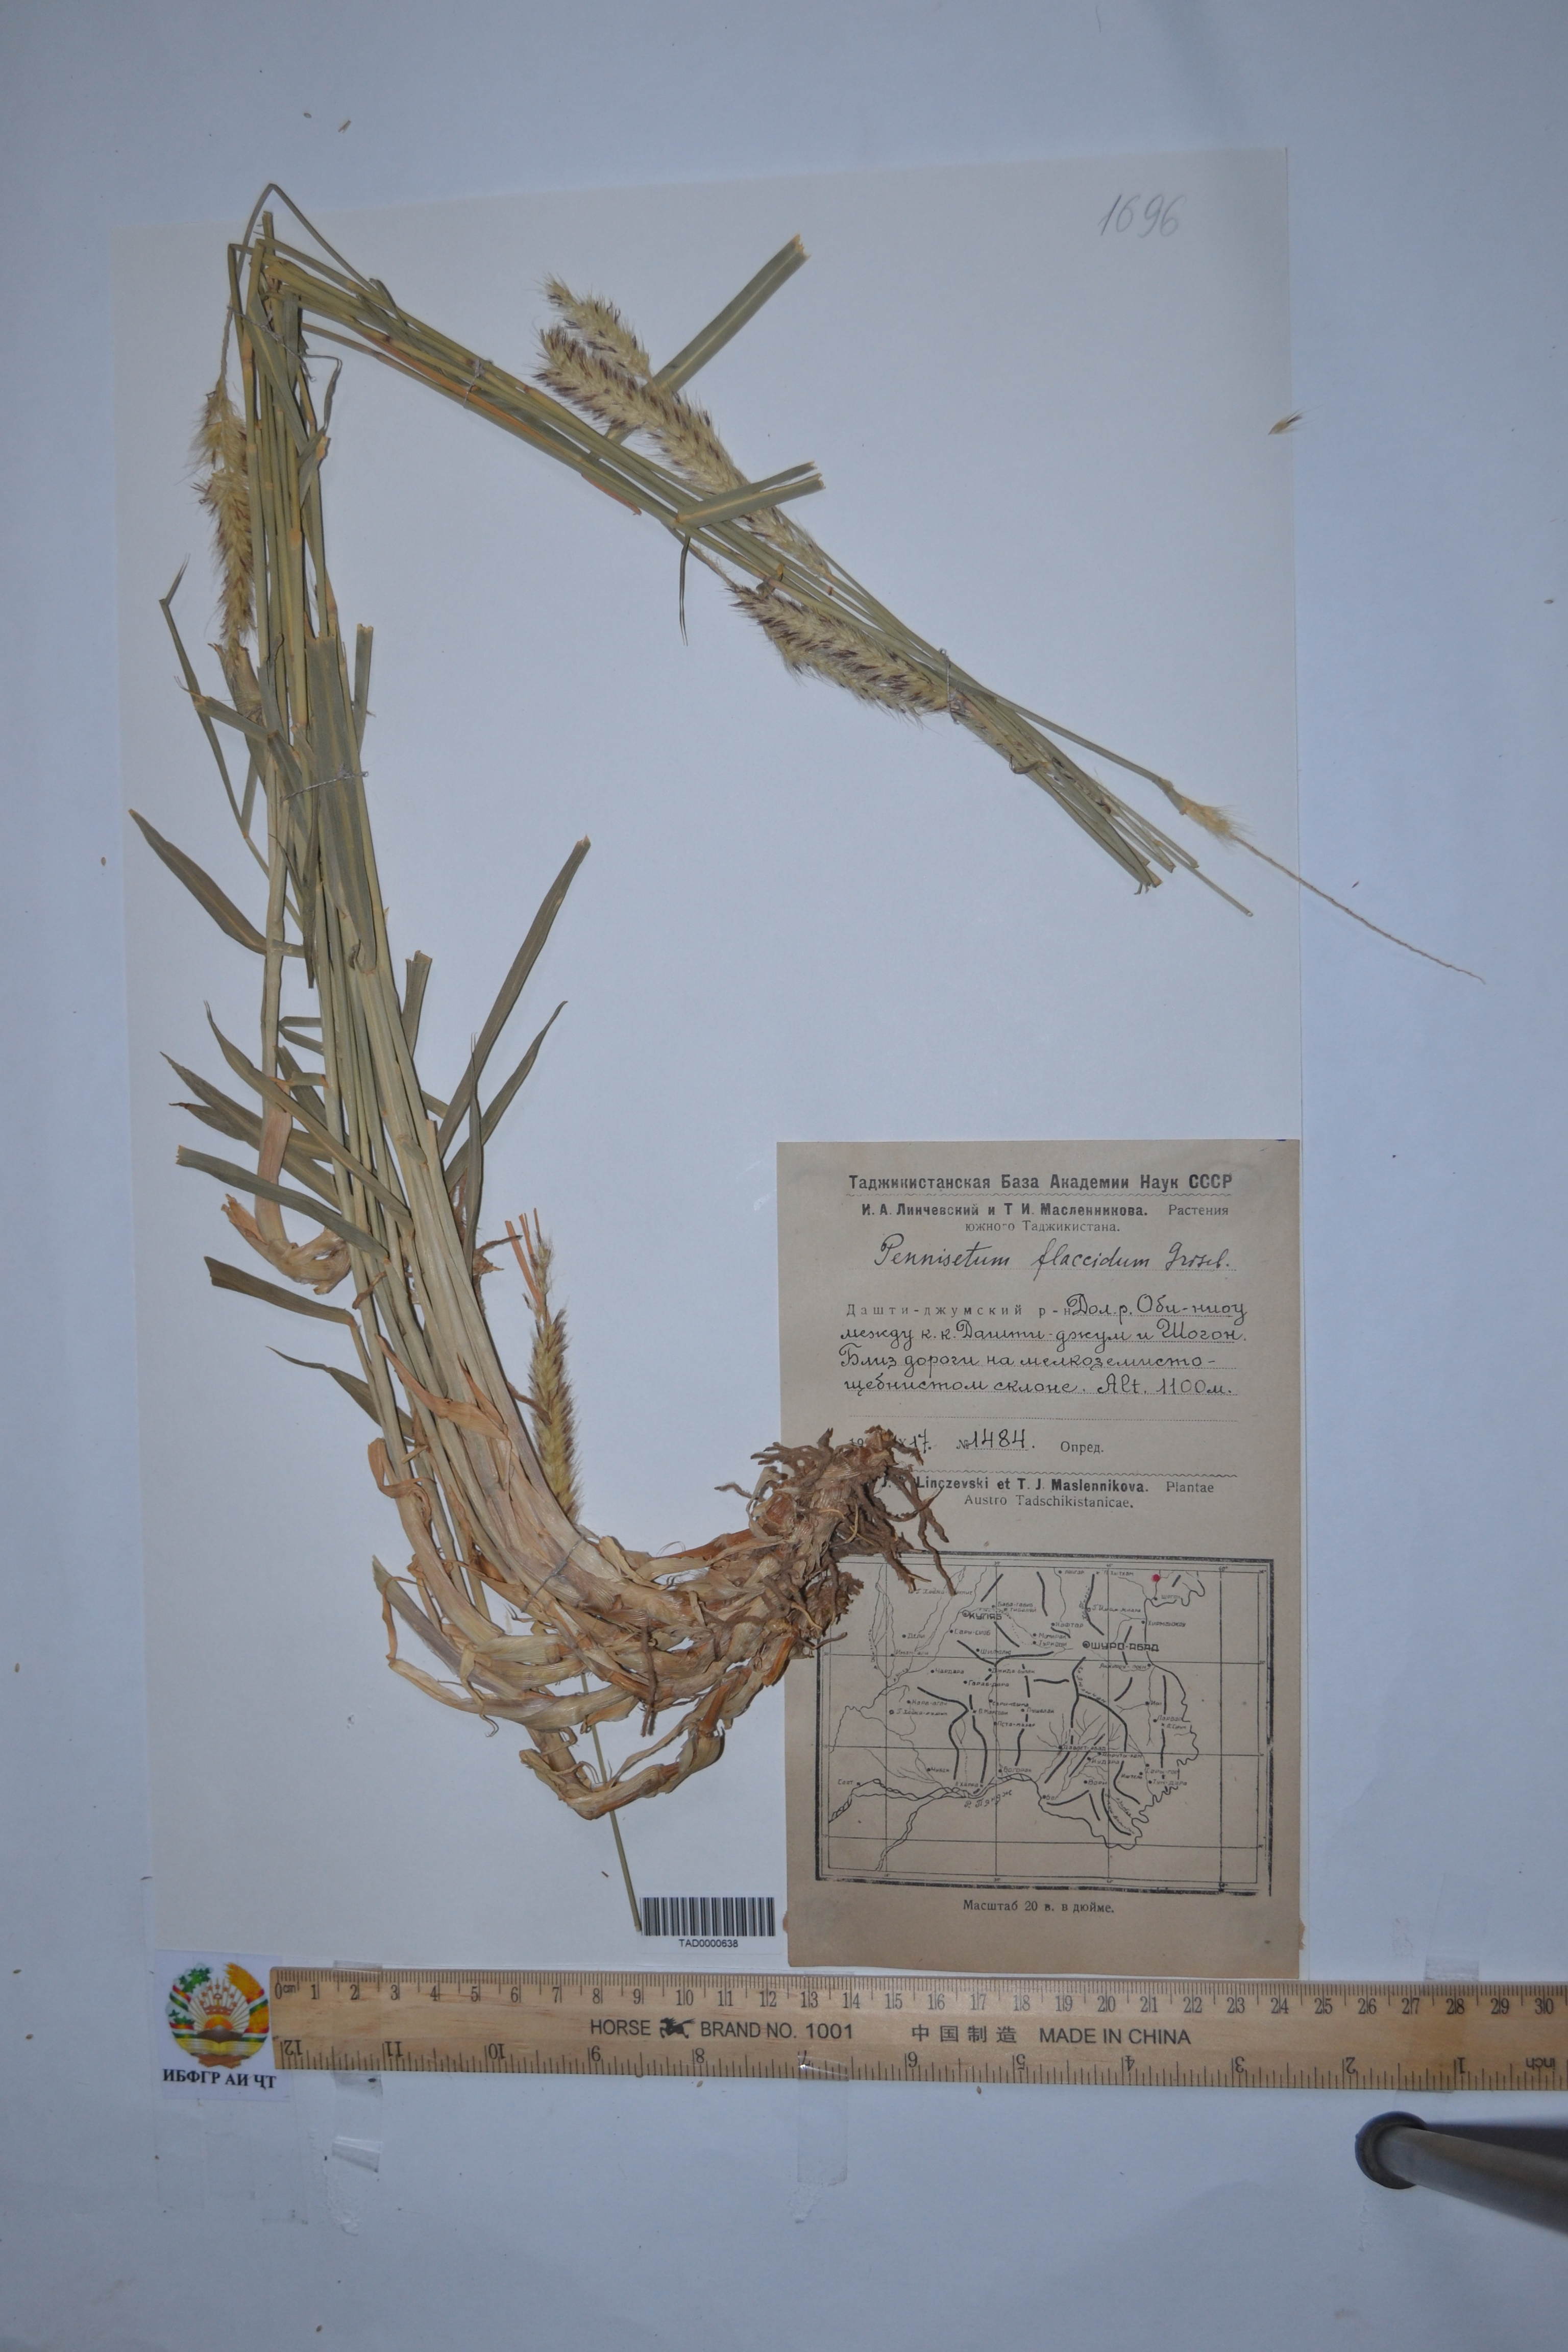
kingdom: Plantae
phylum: Tracheophyta
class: Liliopsida
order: Poales
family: Poaceae
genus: Cenchrus
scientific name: Cenchrus flaccidus
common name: Flaccid grass
